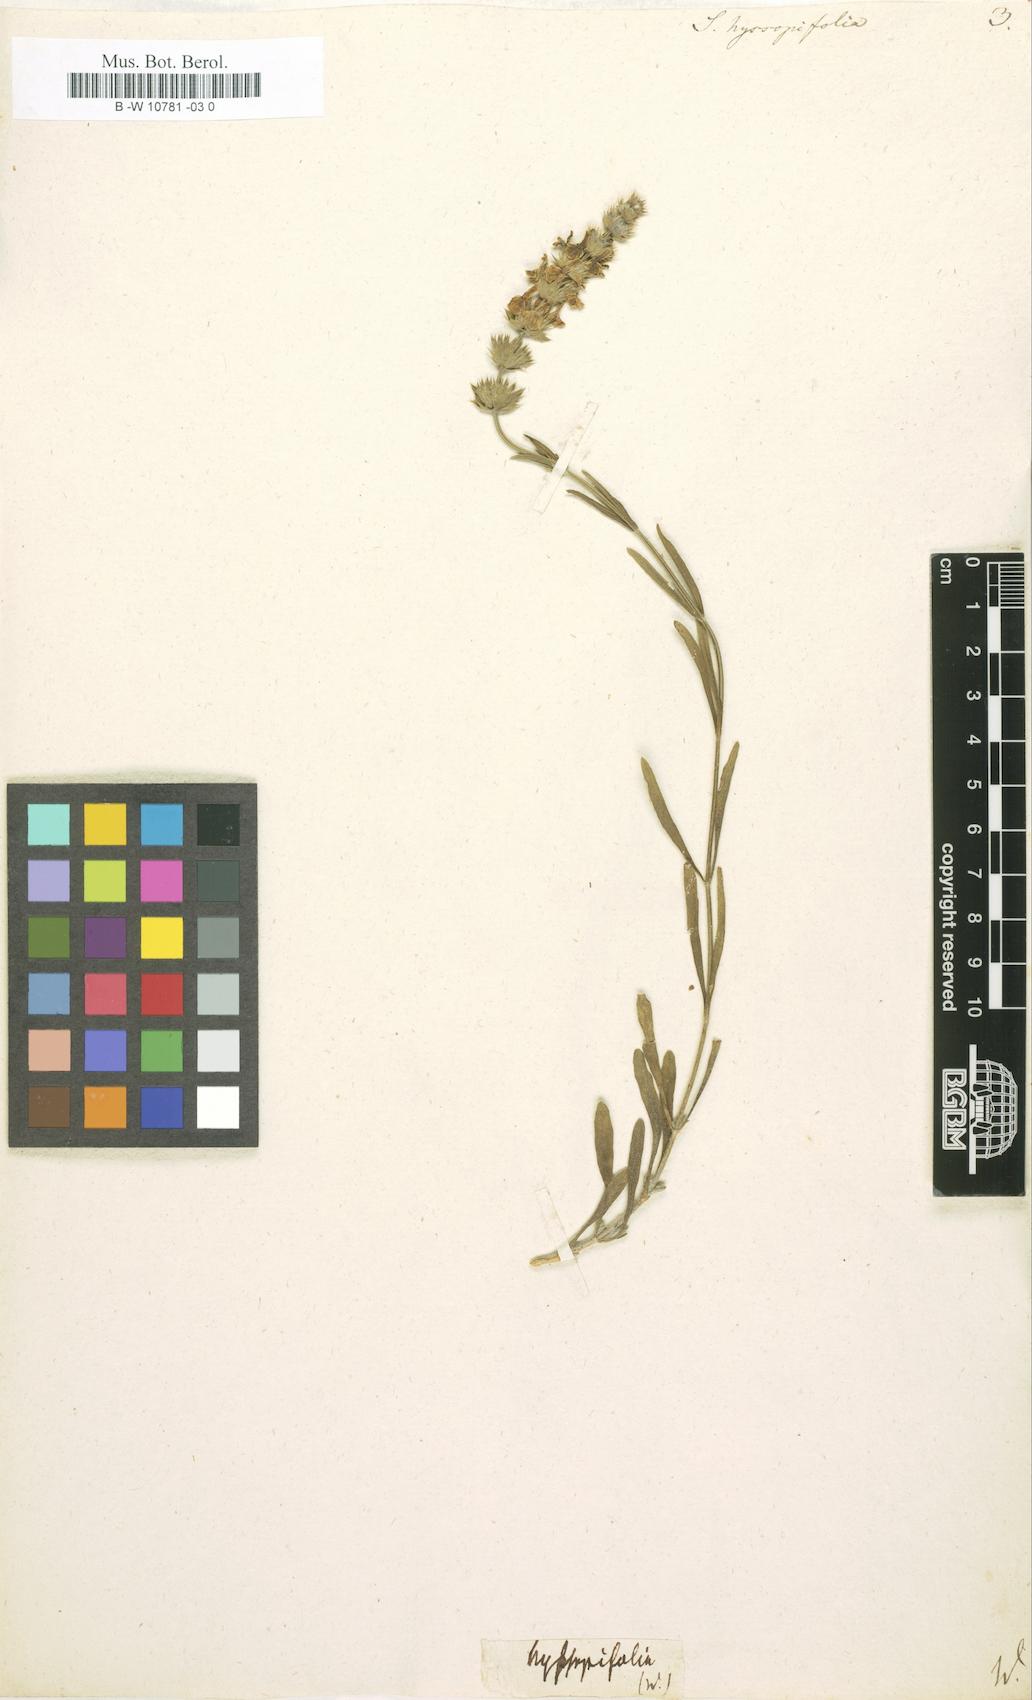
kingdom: Plantae
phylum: Tracheophyta
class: Magnoliopsida
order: Lamiales
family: Lamiaceae
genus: Sideritis
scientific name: Sideritis hyssopifolia
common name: Mountain tea
